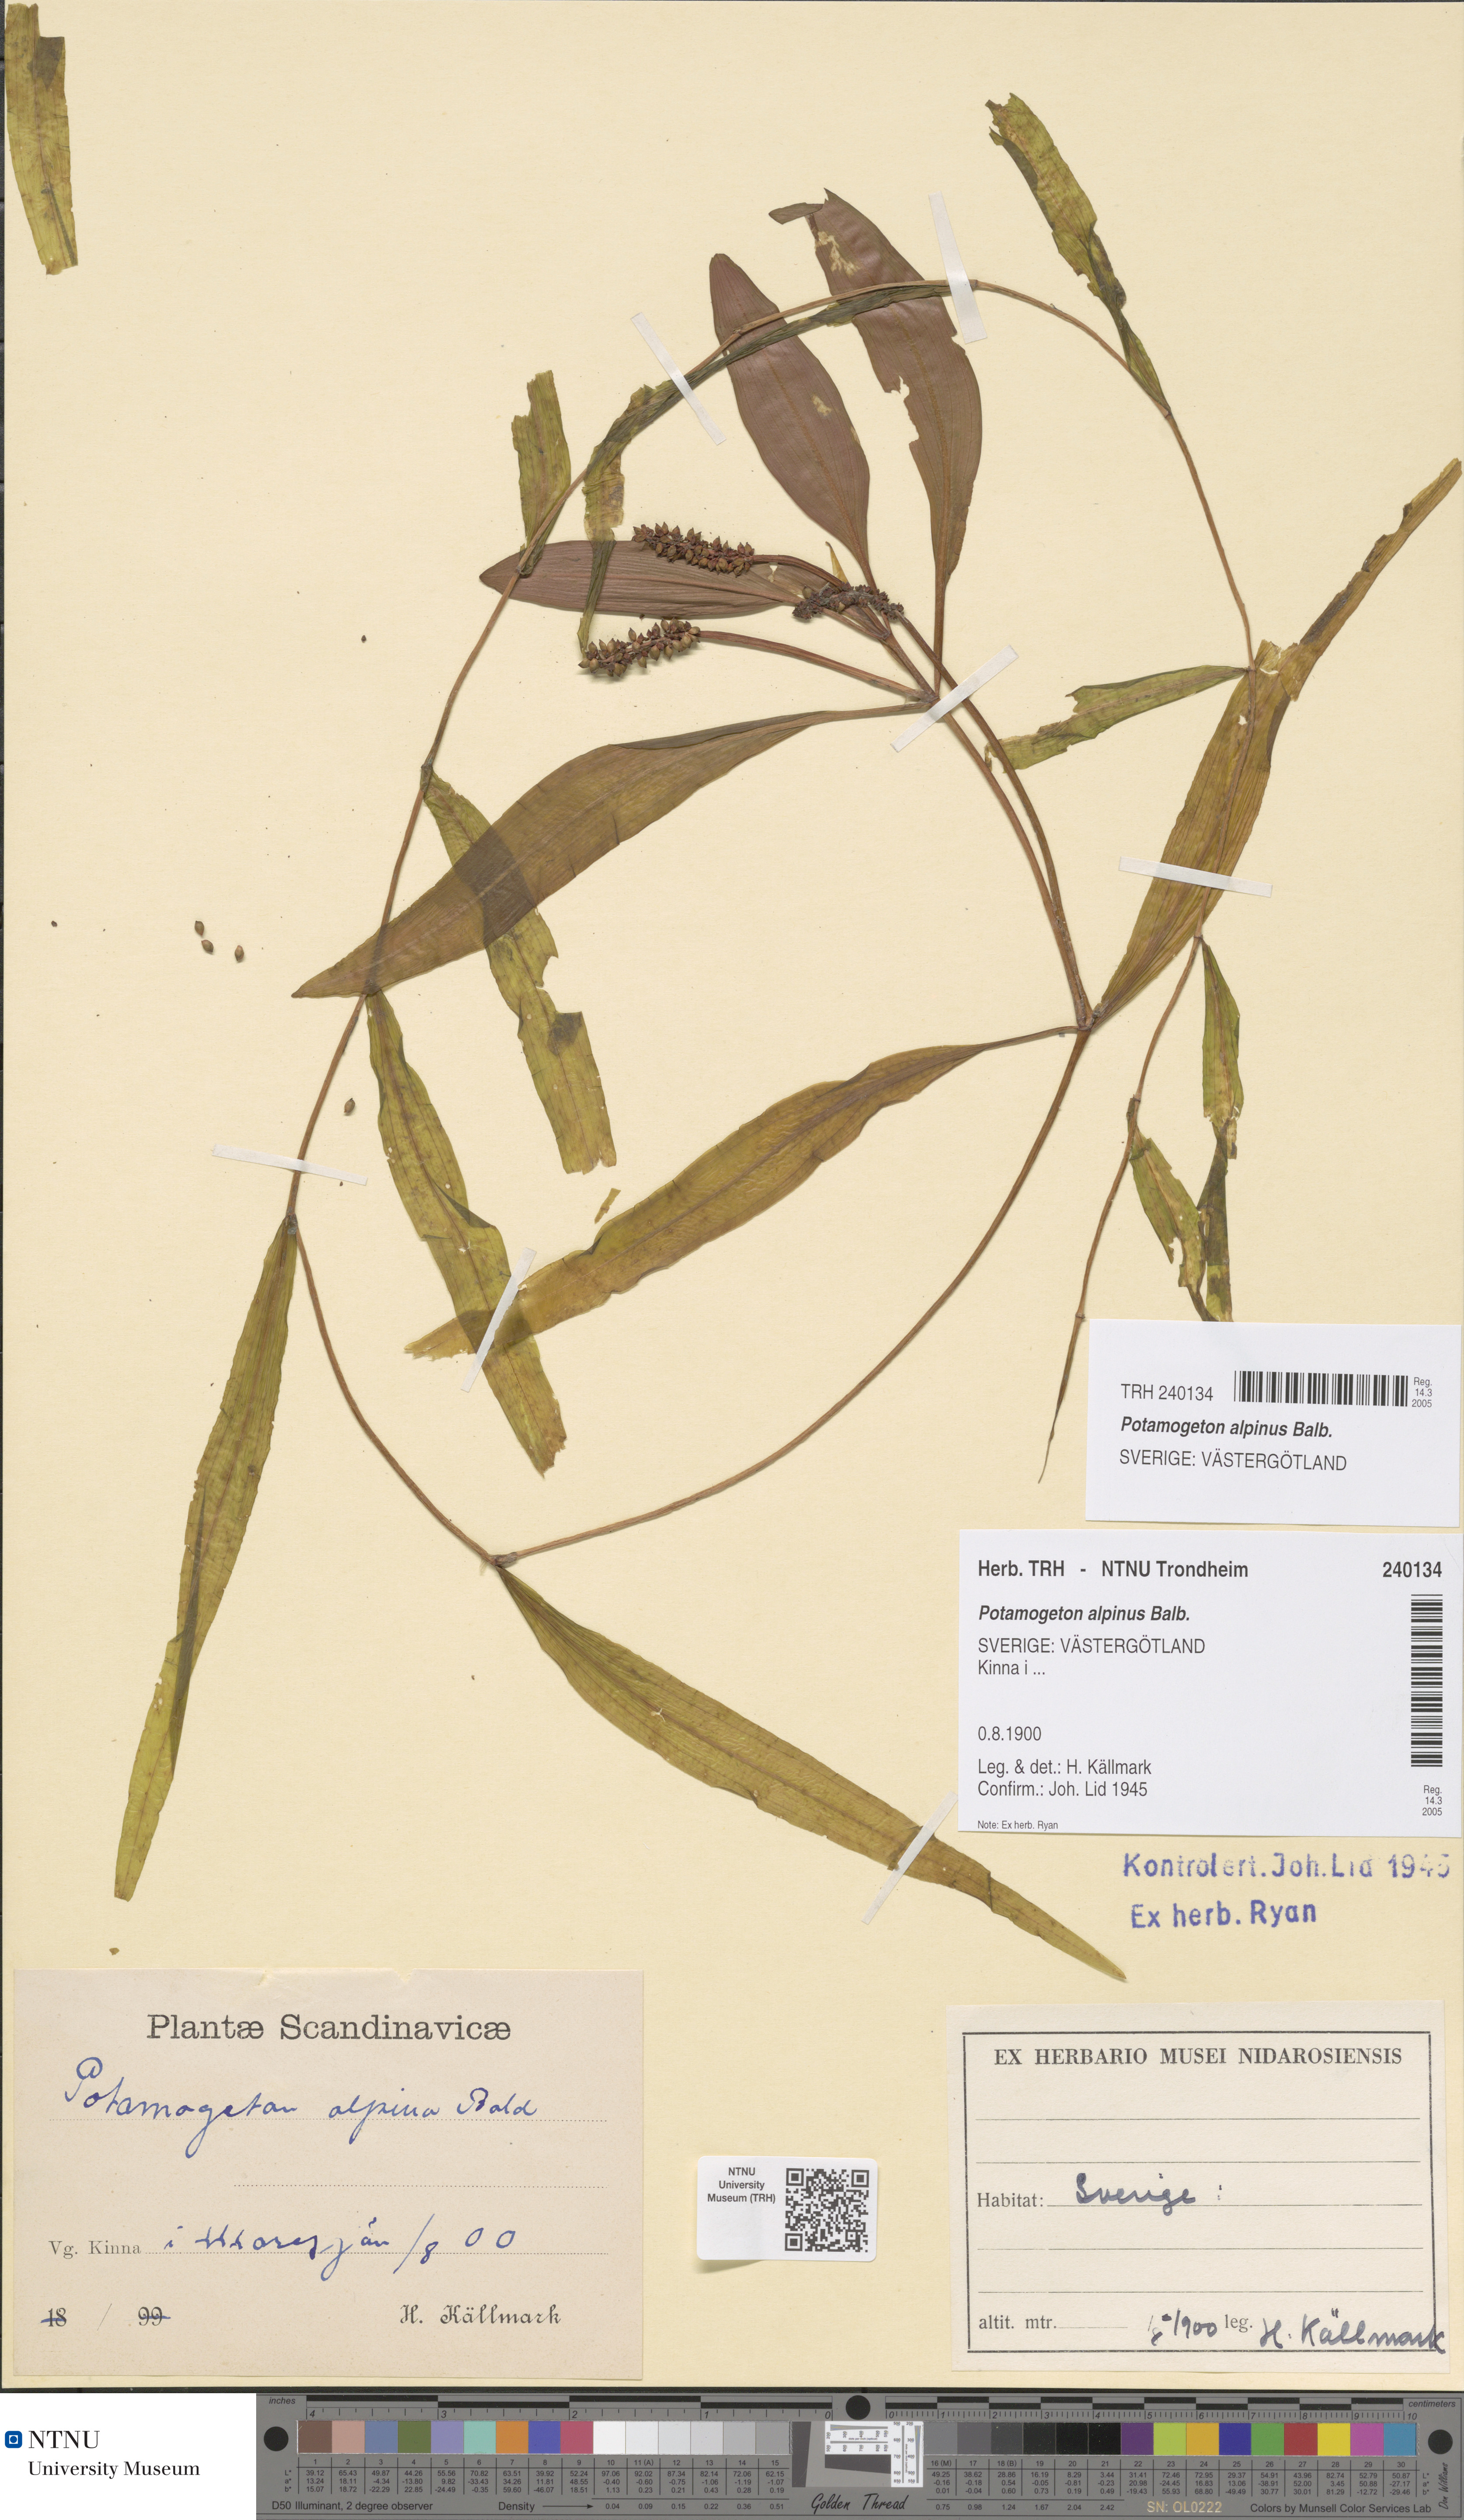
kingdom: Plantae
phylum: Tracheophyta
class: Liliopsida
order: Alismatales
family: Potamogetonaceae
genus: Potamogeton
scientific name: Potamogeton alpinus
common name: Red pondweed
